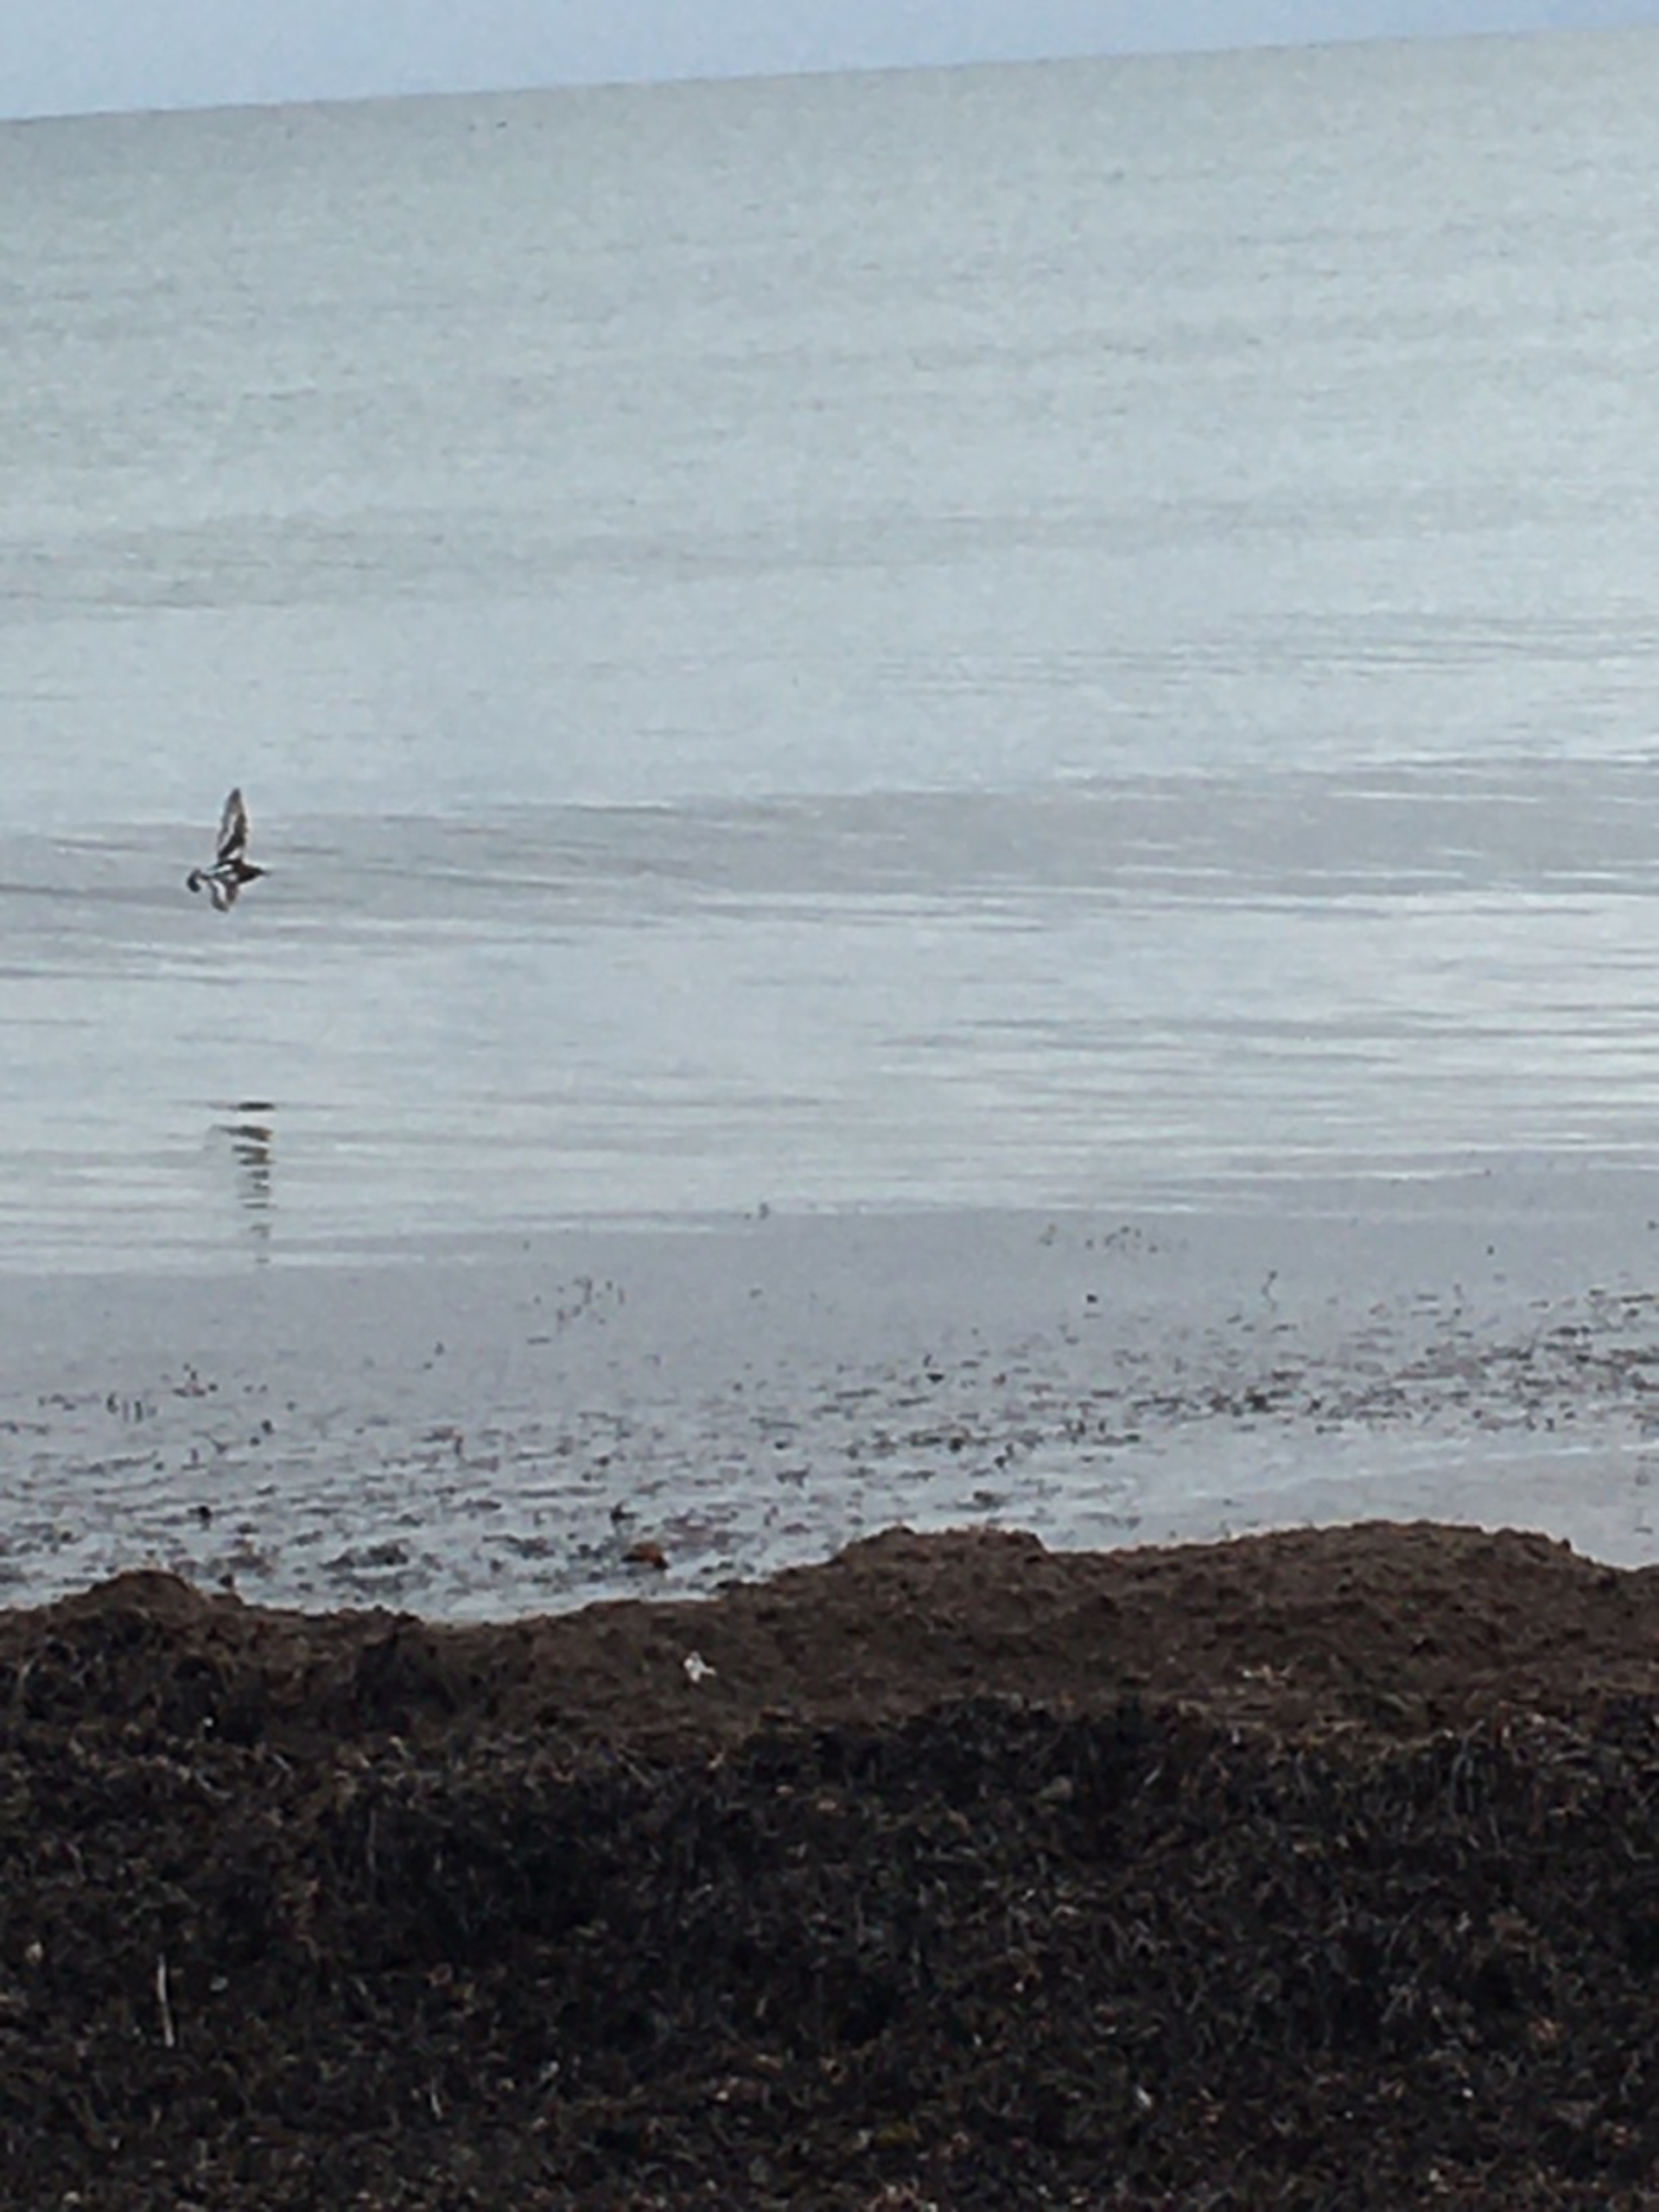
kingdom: Animalia
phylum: Chordata
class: Aves
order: Charadriiformes
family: Scolopacidae
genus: Arenaria
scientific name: Arenaria interpres
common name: Stenvender
